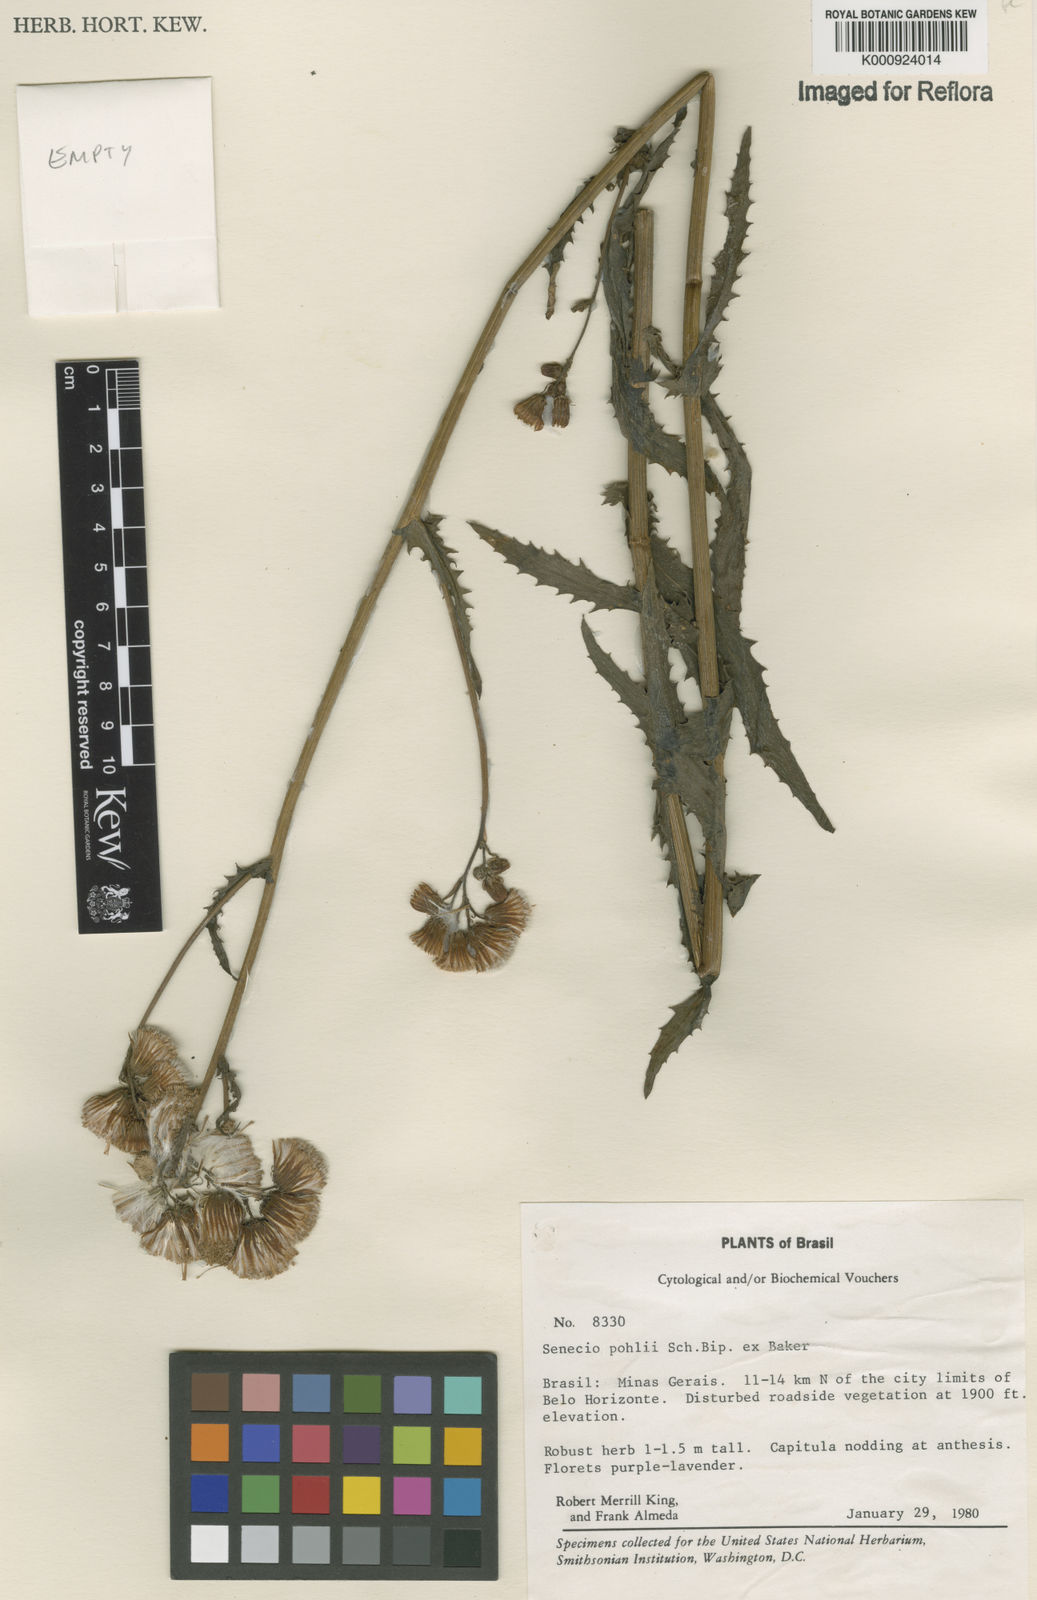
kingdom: Plantae
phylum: Tracheophyta
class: Magnoliopsida
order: Asterales
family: Asteraceae
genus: Pseudogynoxys
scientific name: Pseudogynoxys pohlii
